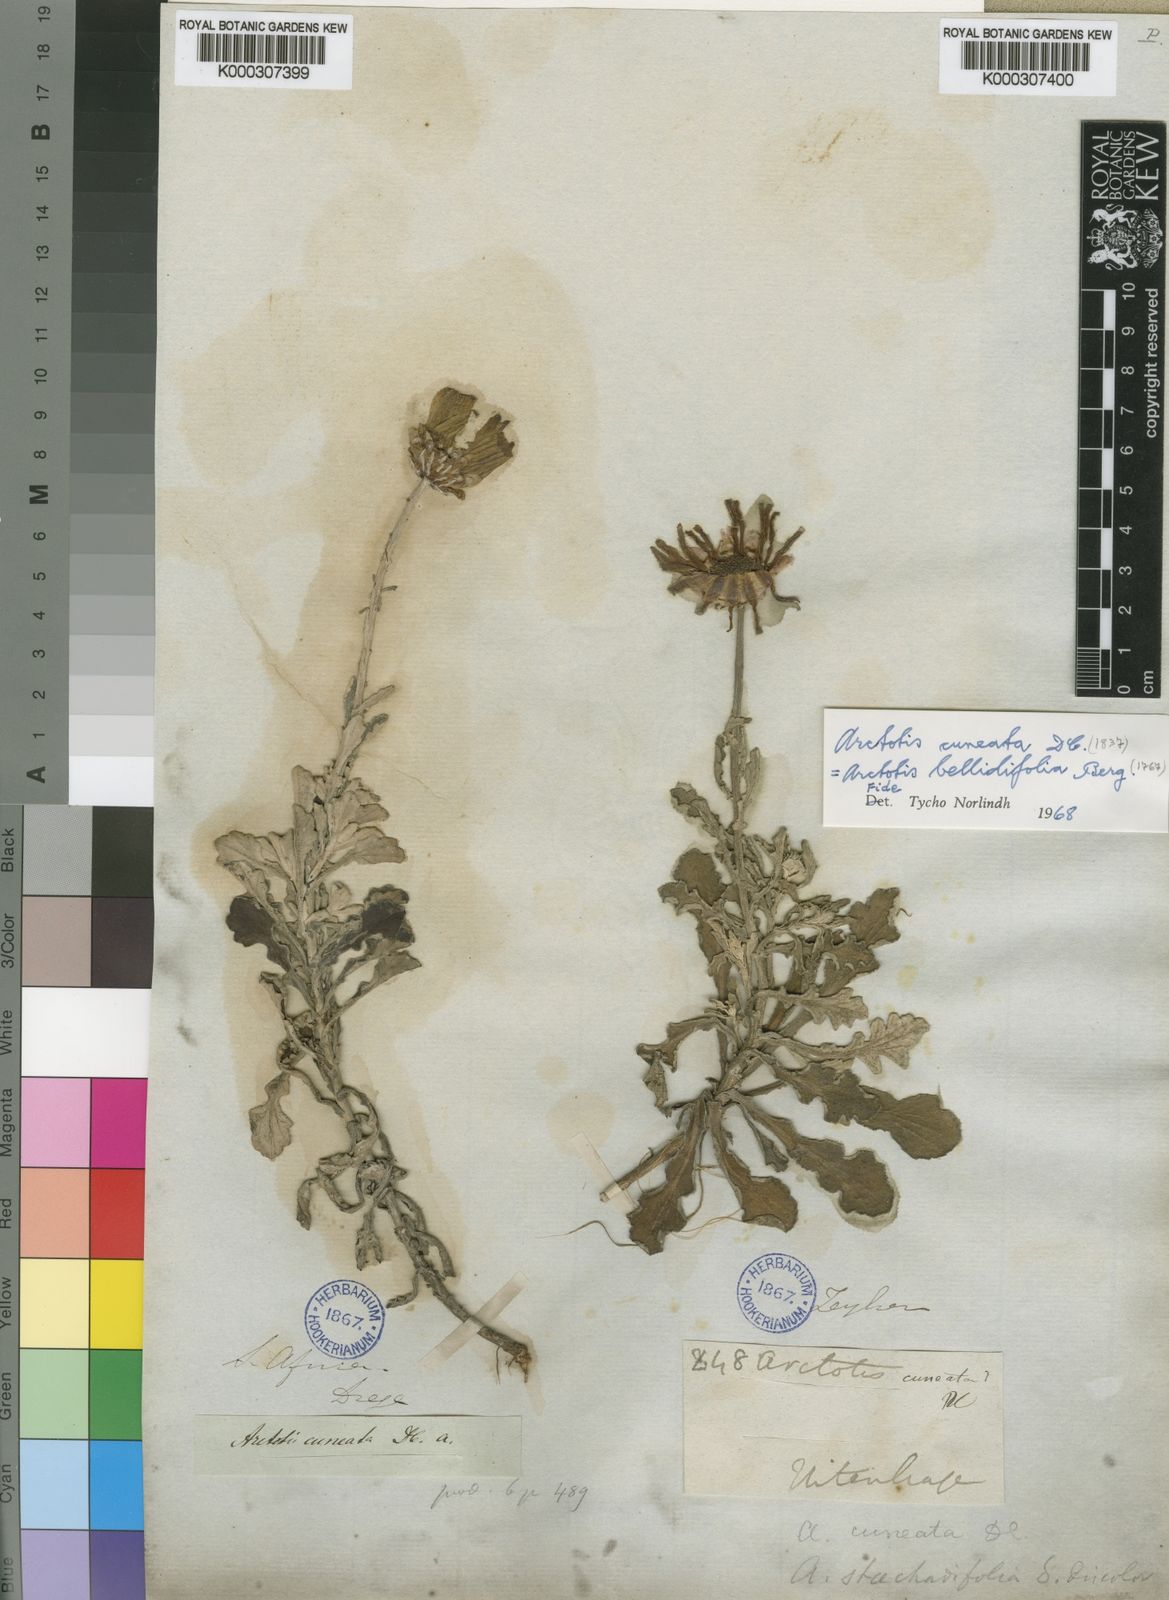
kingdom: Plantae
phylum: Tracheophyta
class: Magnoliopsida
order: Asterales
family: Asteraceae
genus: Arctotis
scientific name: Arctotis pinnatifida
